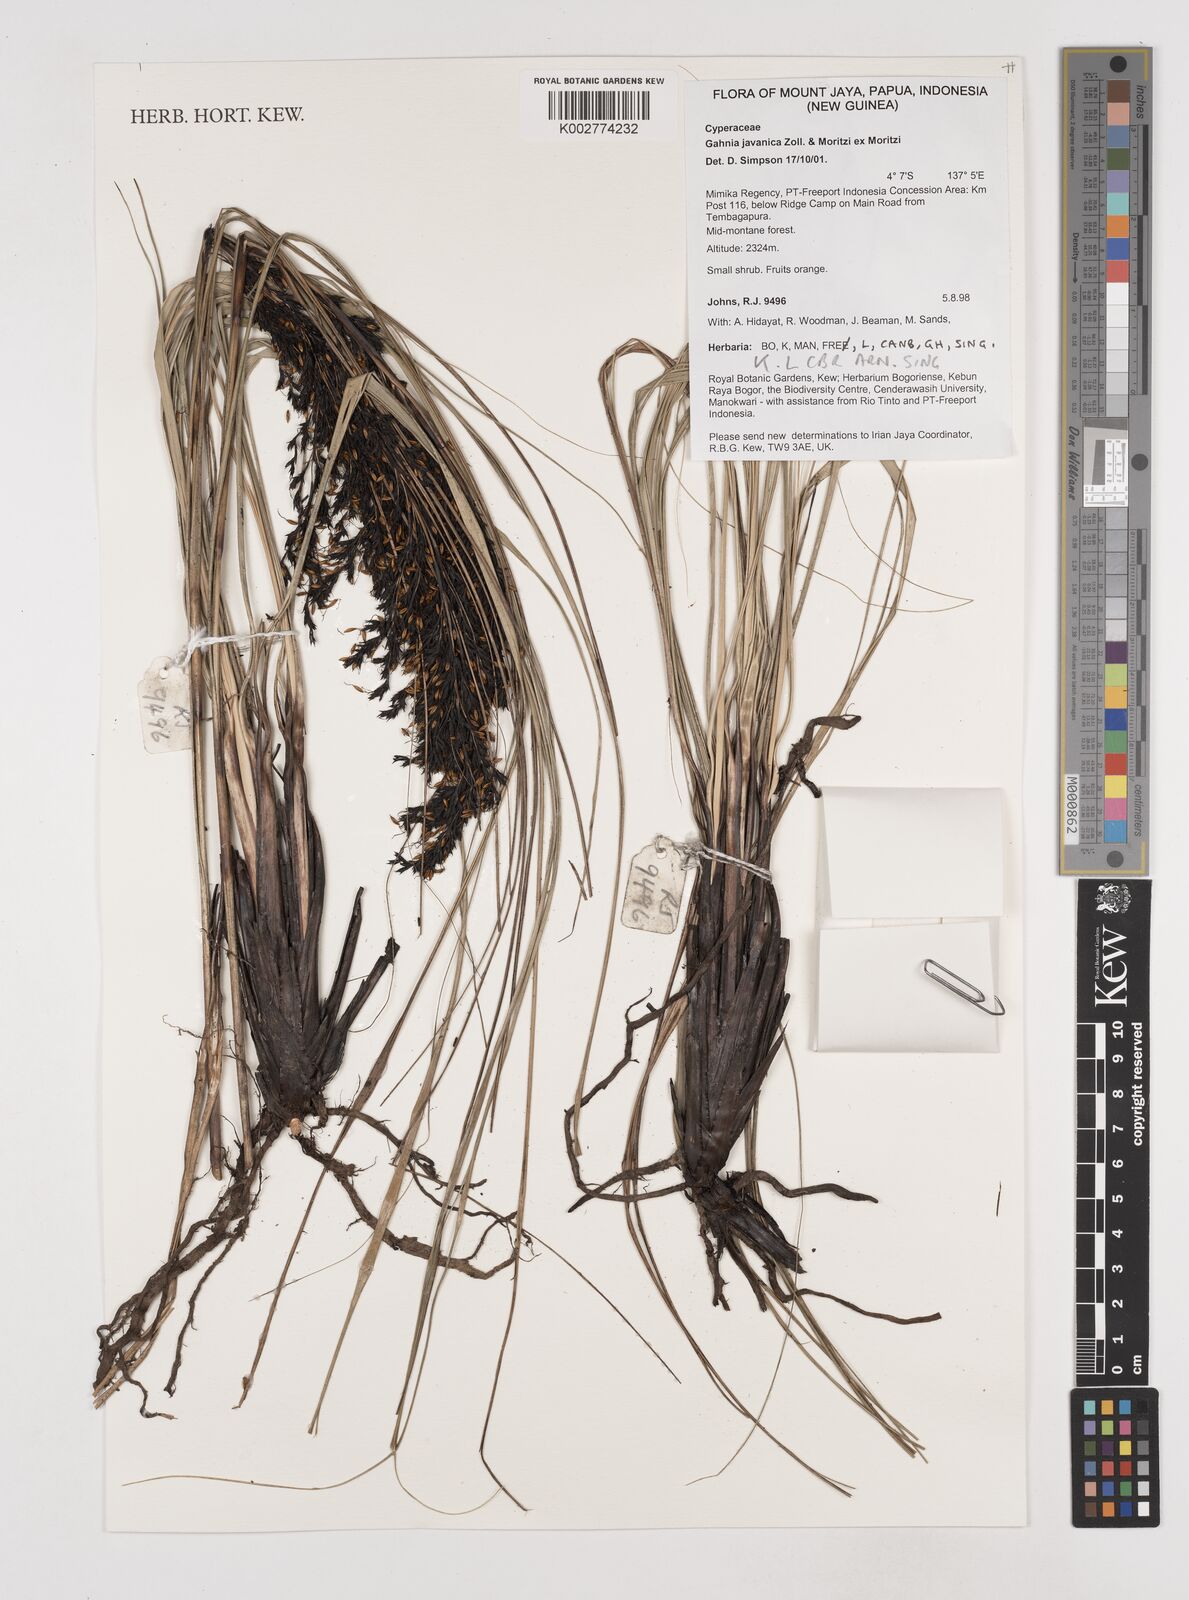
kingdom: Plantae
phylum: Tracheophyta
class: Liliopsida
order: Poales
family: Cyperaceae
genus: Gahnia
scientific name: Gahnia javanica
